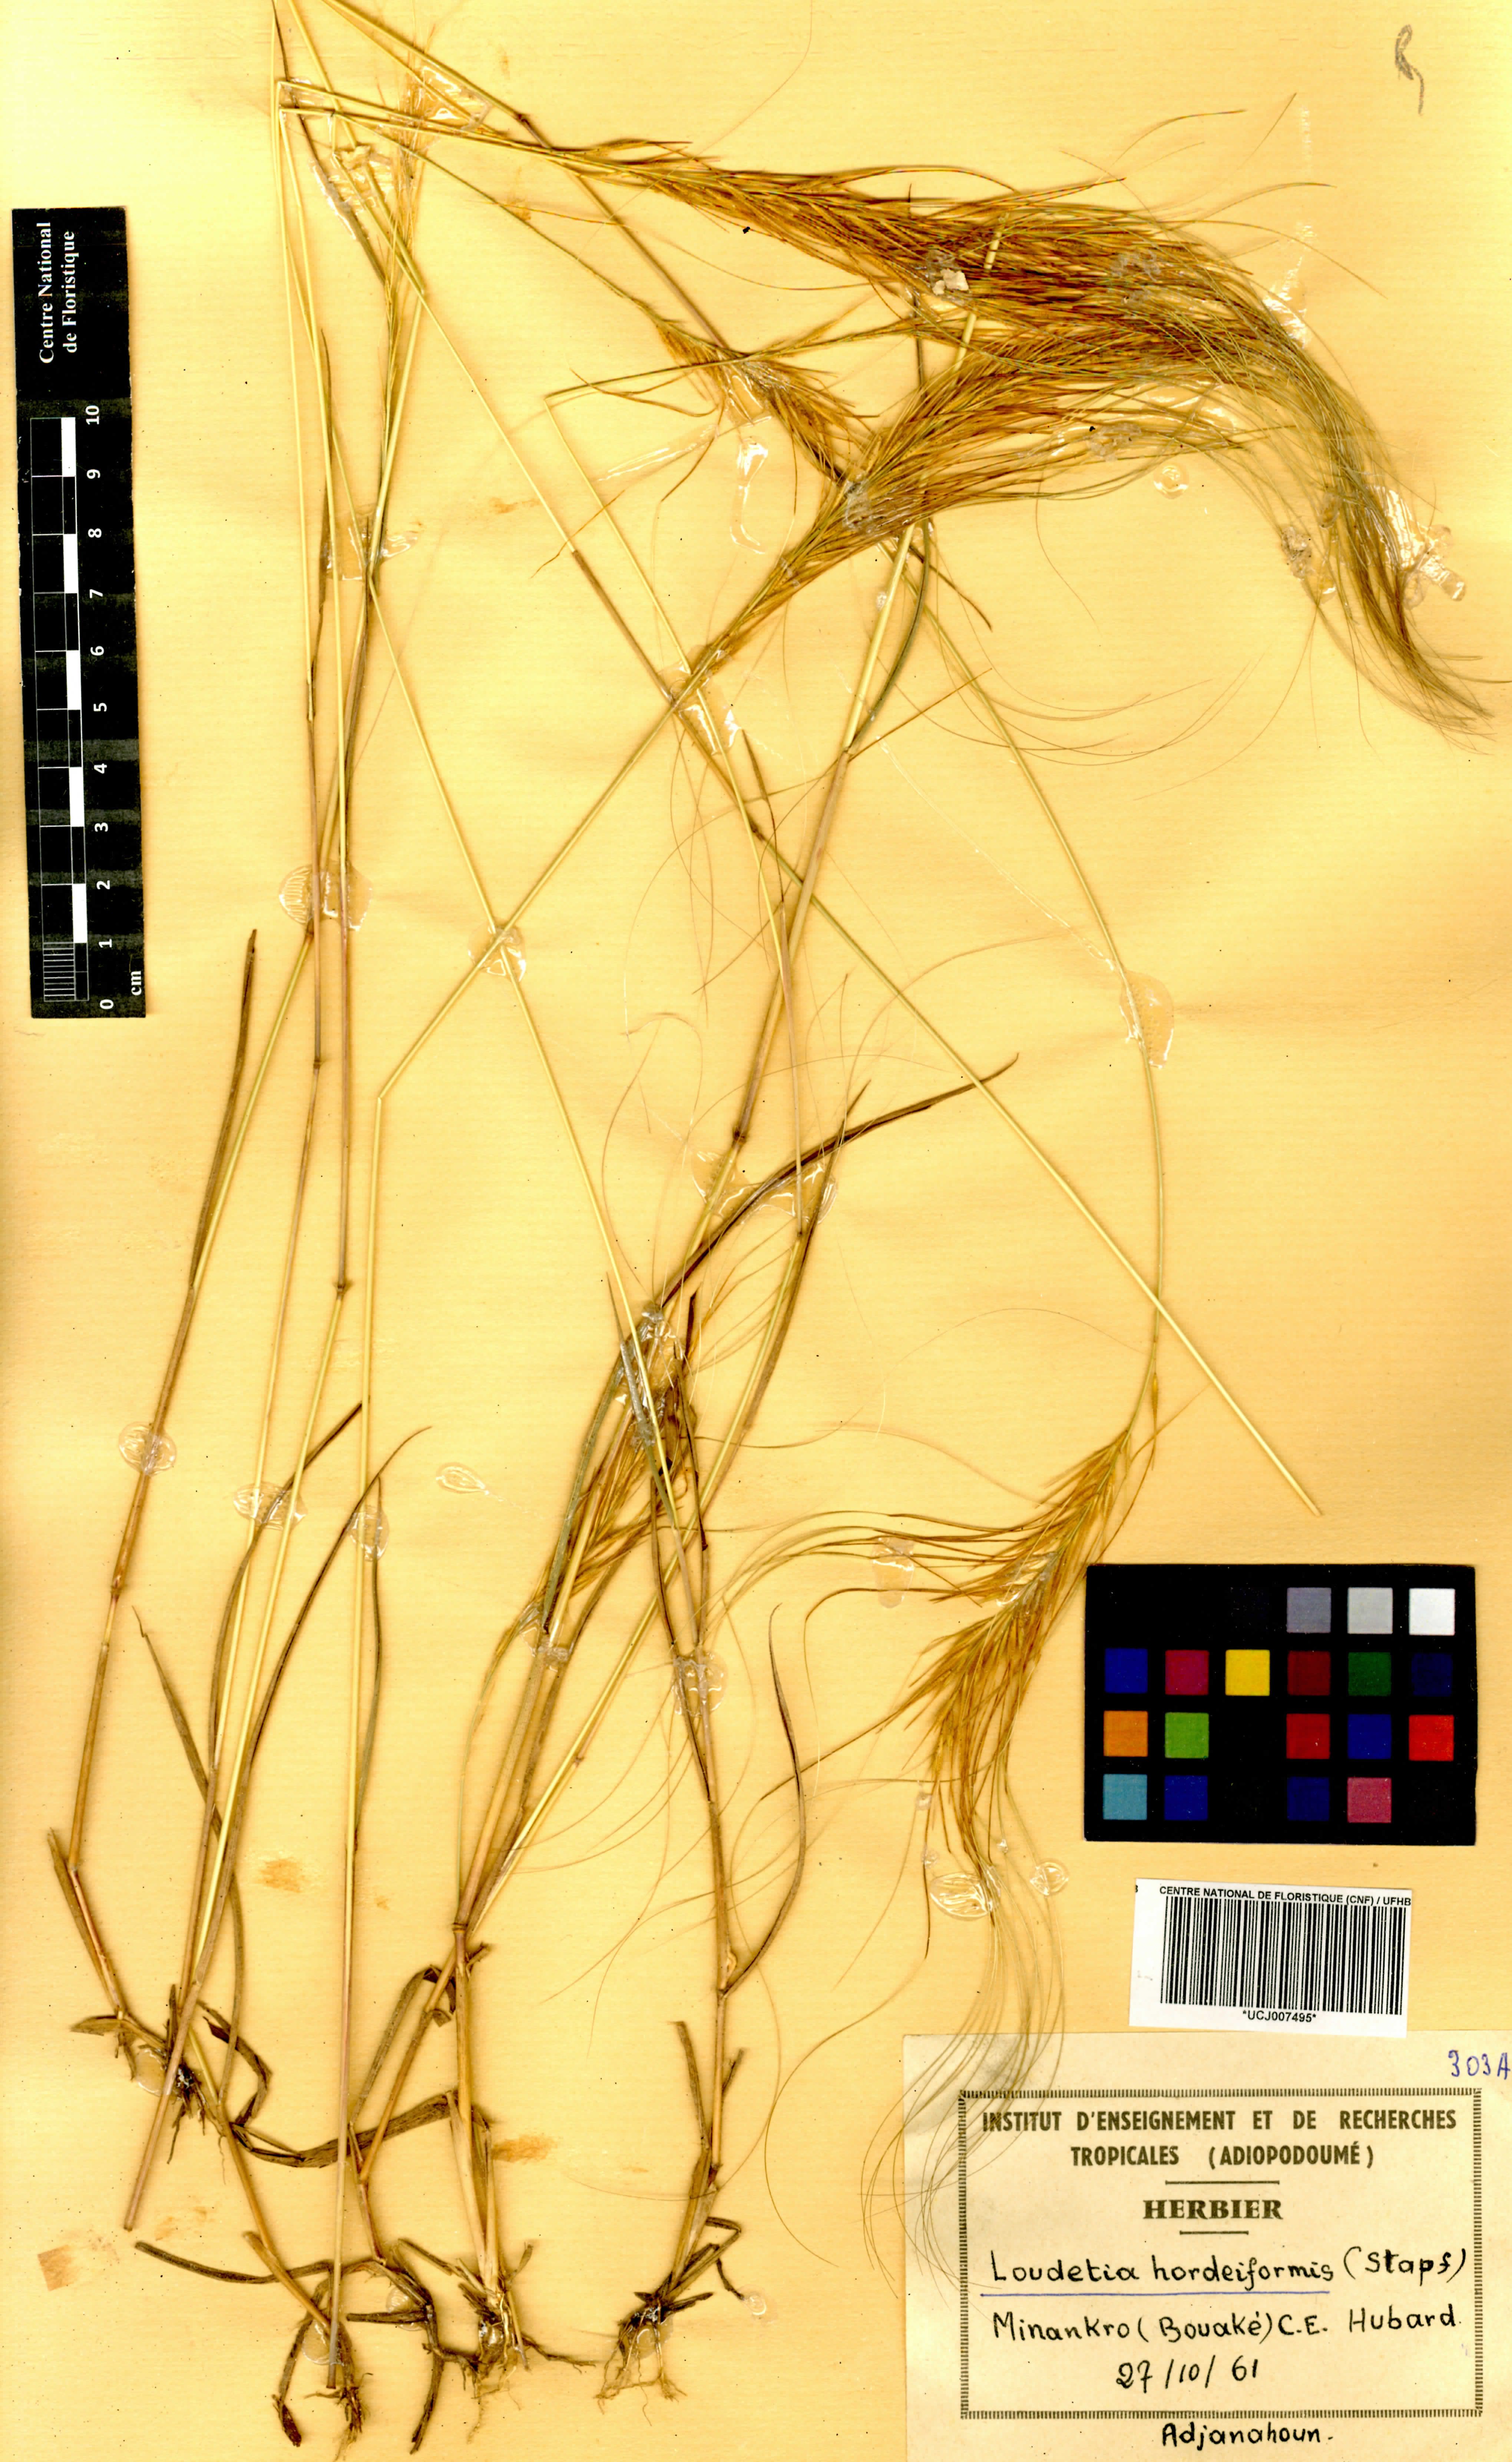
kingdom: Plantae
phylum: Tracheophyta
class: Liliopsida
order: Poales
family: Poaceae
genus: Loudetia
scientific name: Loudetia hordeiformis
